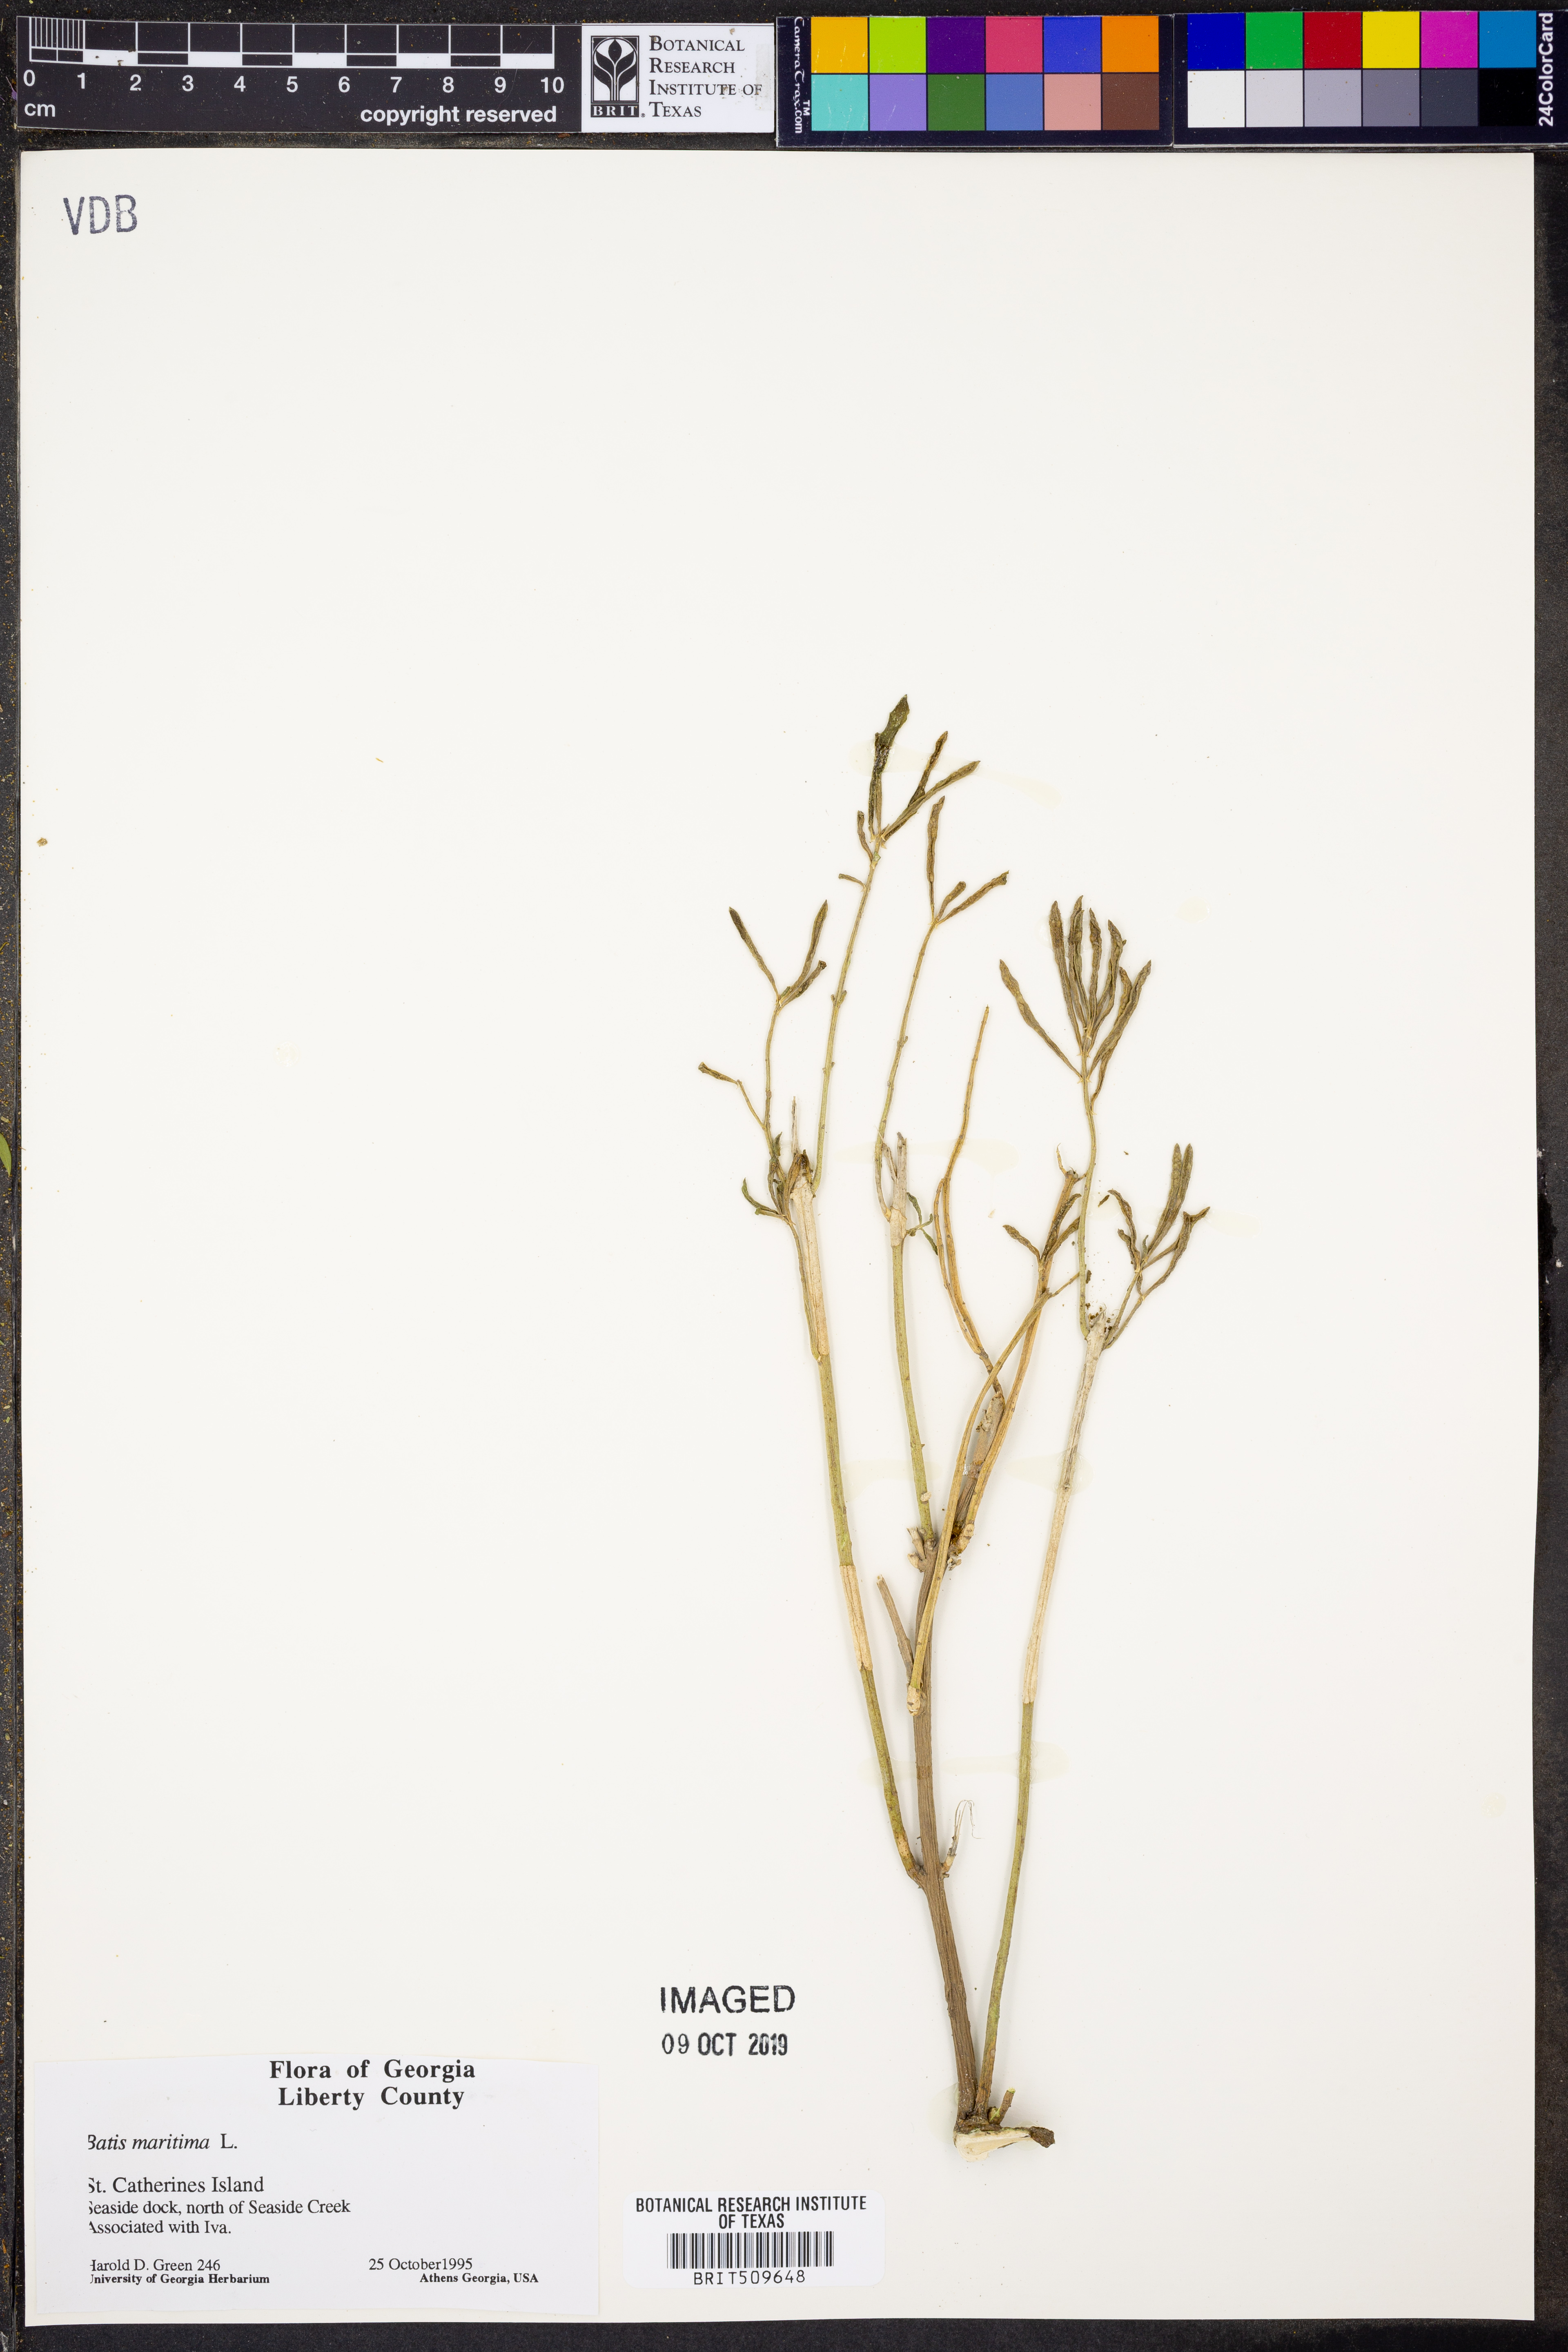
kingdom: Plantae
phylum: Tracheophyta
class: Magnoliopsida
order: Brassicales
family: Bataceae
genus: Batis
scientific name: Batis maritima
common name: Turtleweed
